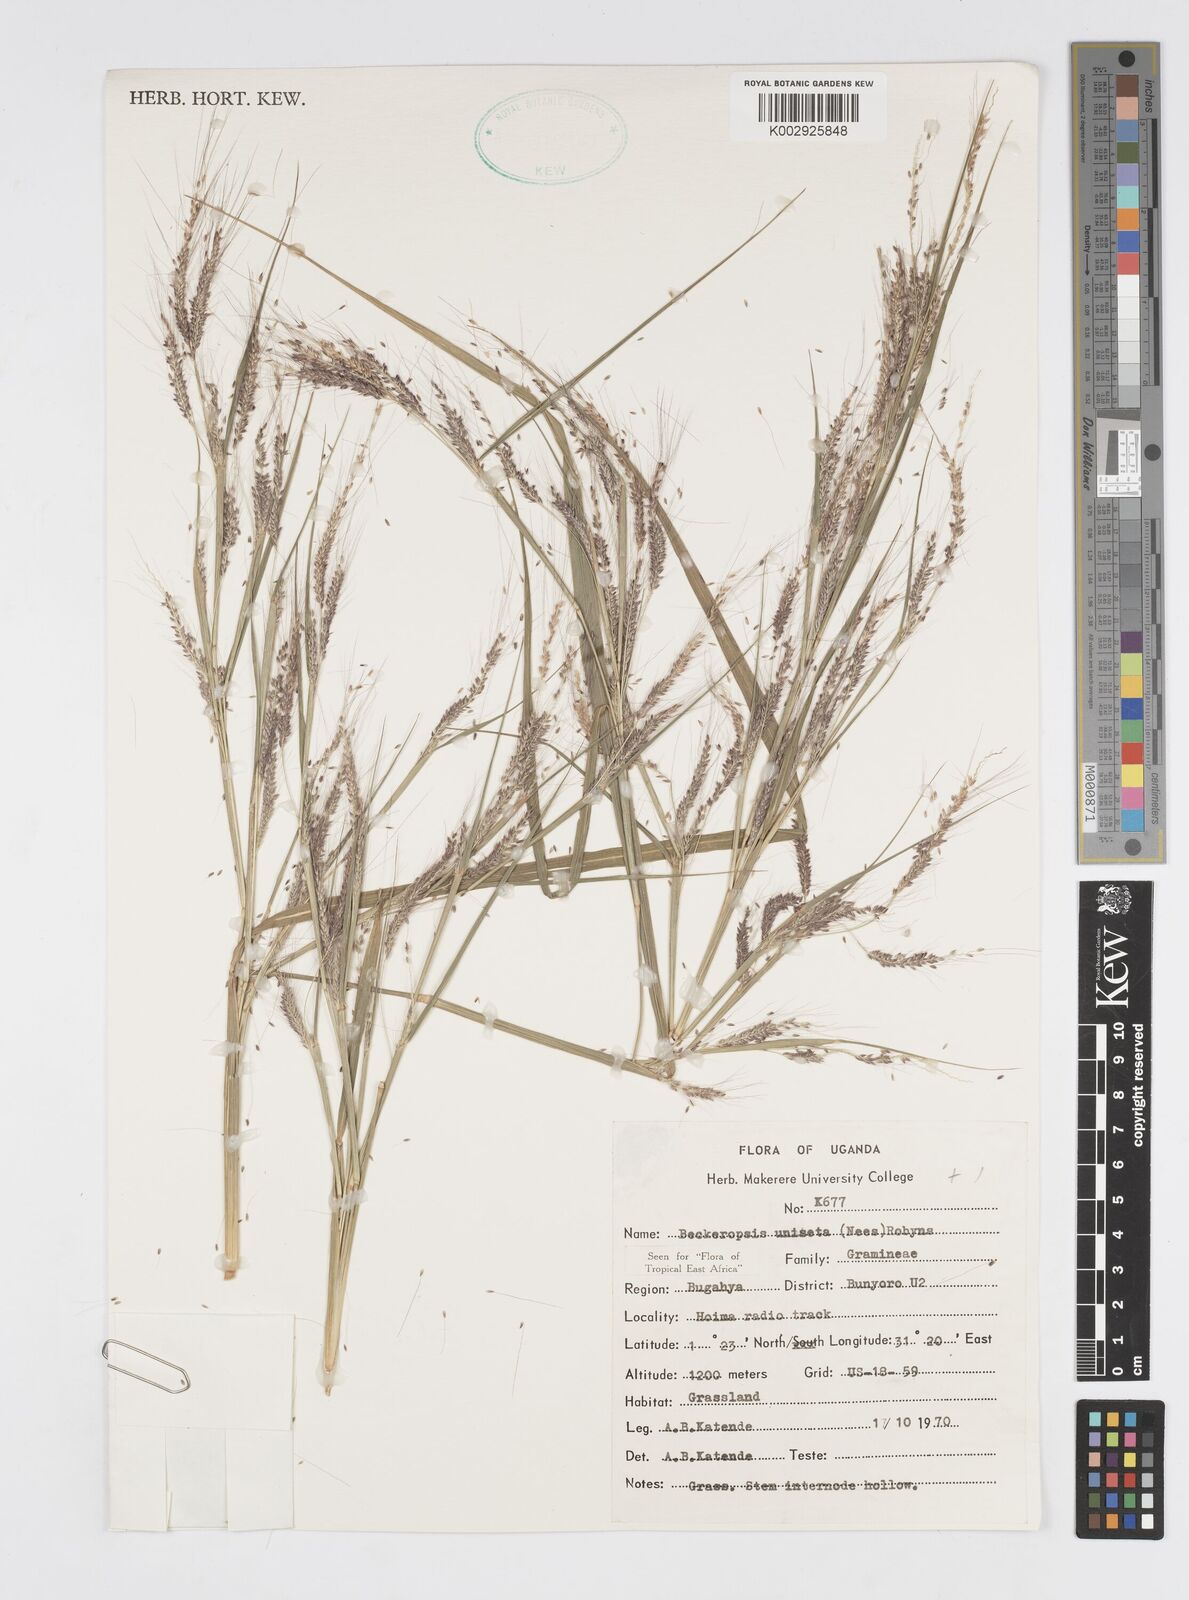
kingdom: Plantae
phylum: Tracheophyta
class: Liliopsida
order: Poales
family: Poaceae
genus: Cenchrus
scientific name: Cenchrus unisetus
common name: Natal grass
